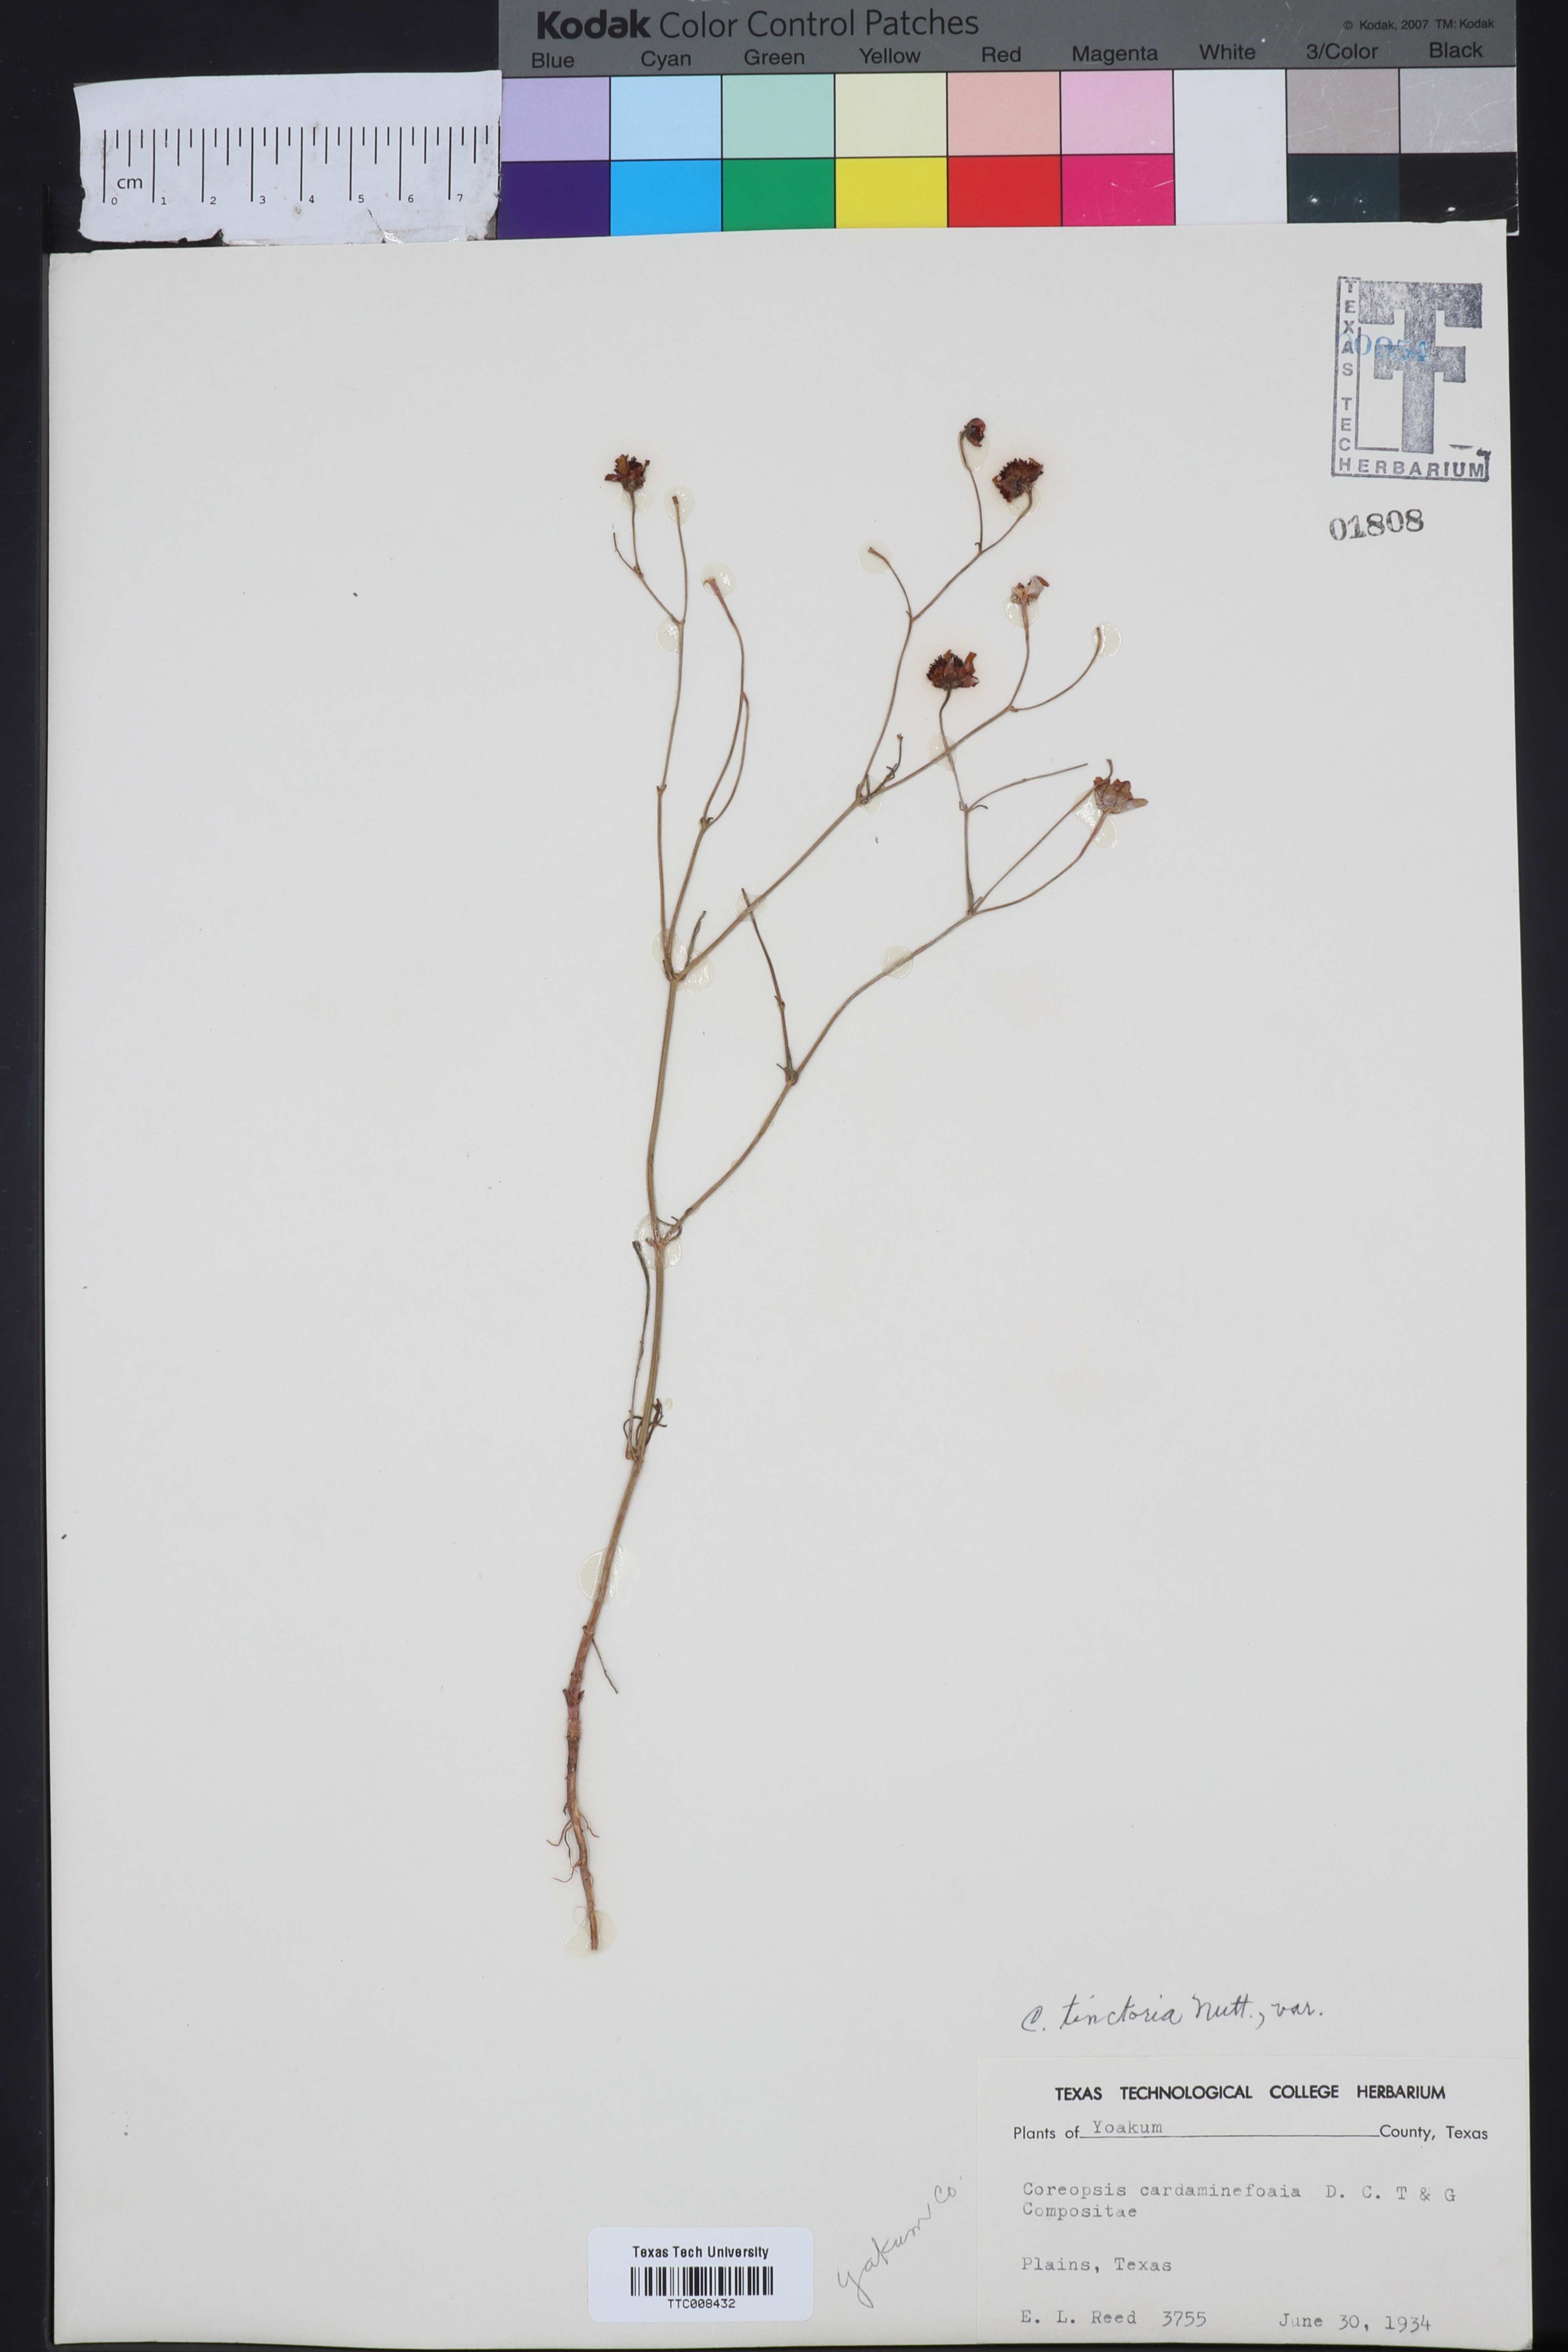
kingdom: Plantae
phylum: Tracheophyta
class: Magnoliopsida
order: Asterales
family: Asteraceae
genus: Coreopsis
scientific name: Coreopsis tinctoria
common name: Garden tickseed
